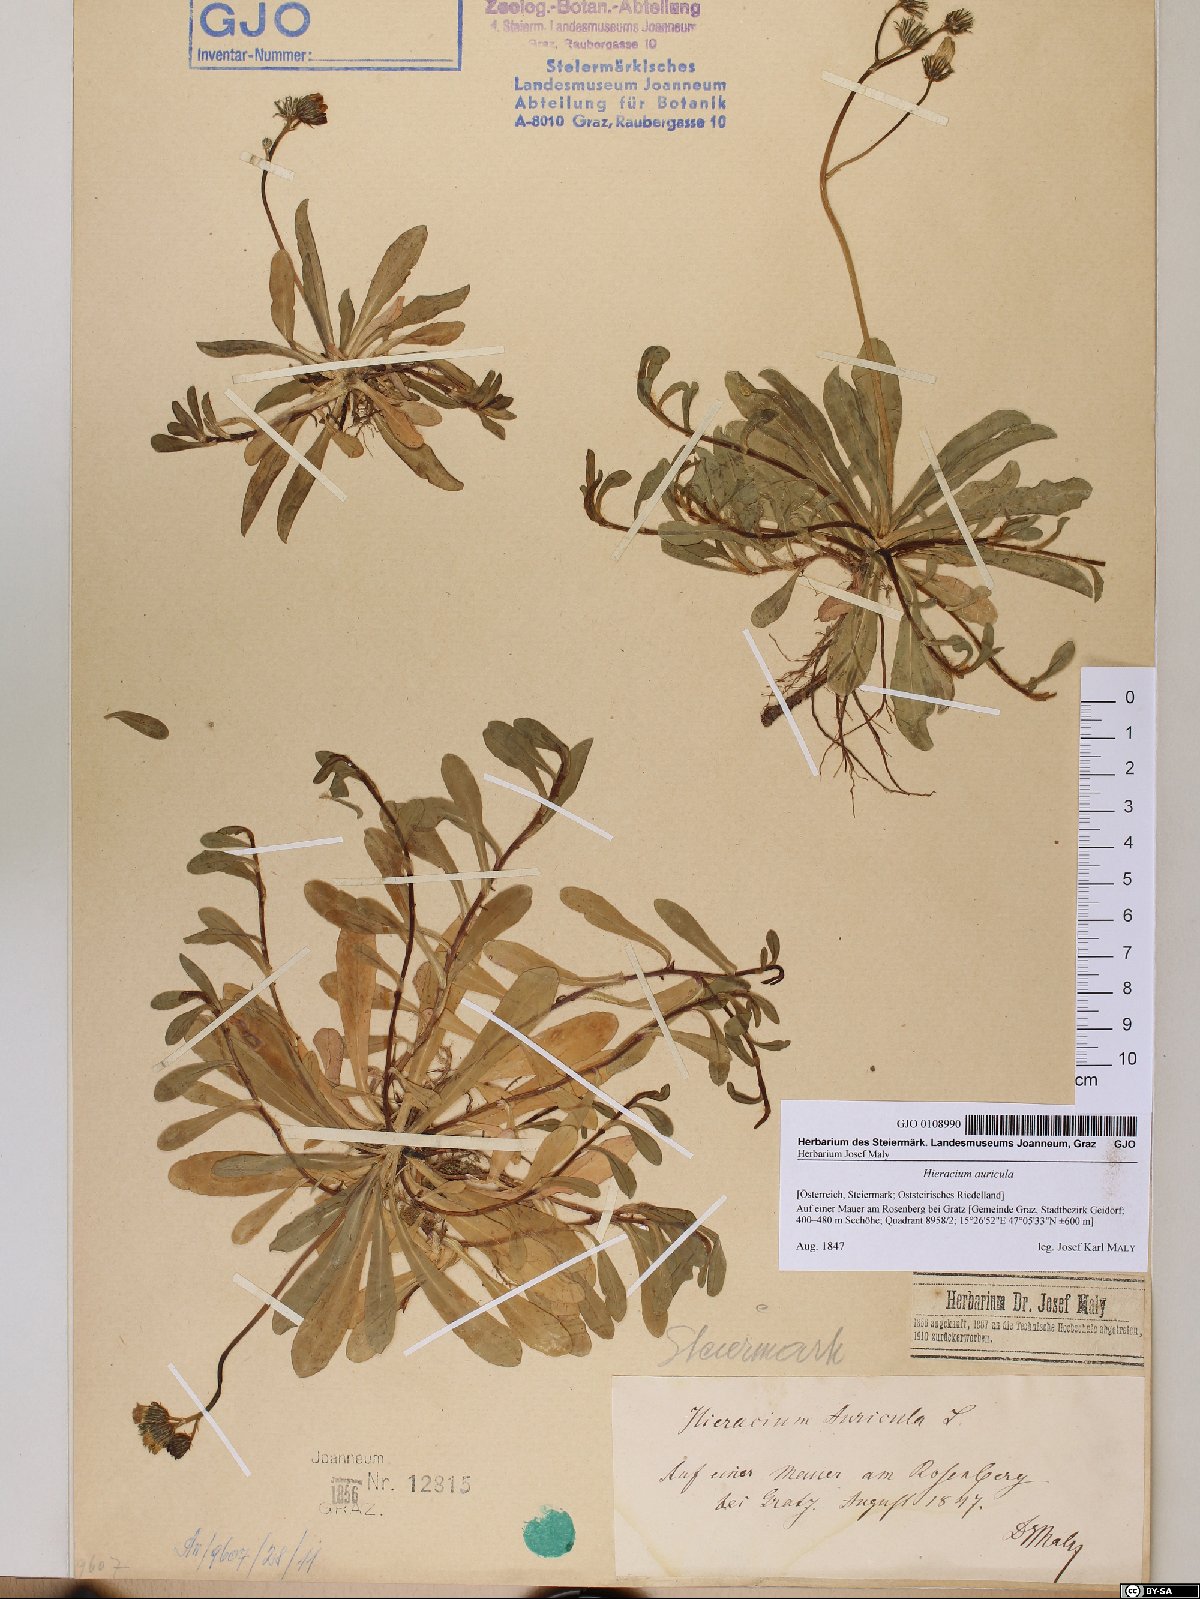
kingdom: Plantae
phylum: Tracheophyta
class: Magnoliopsida
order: Asterales
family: Asteraceae
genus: Hieracium
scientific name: Hieracium auricula
